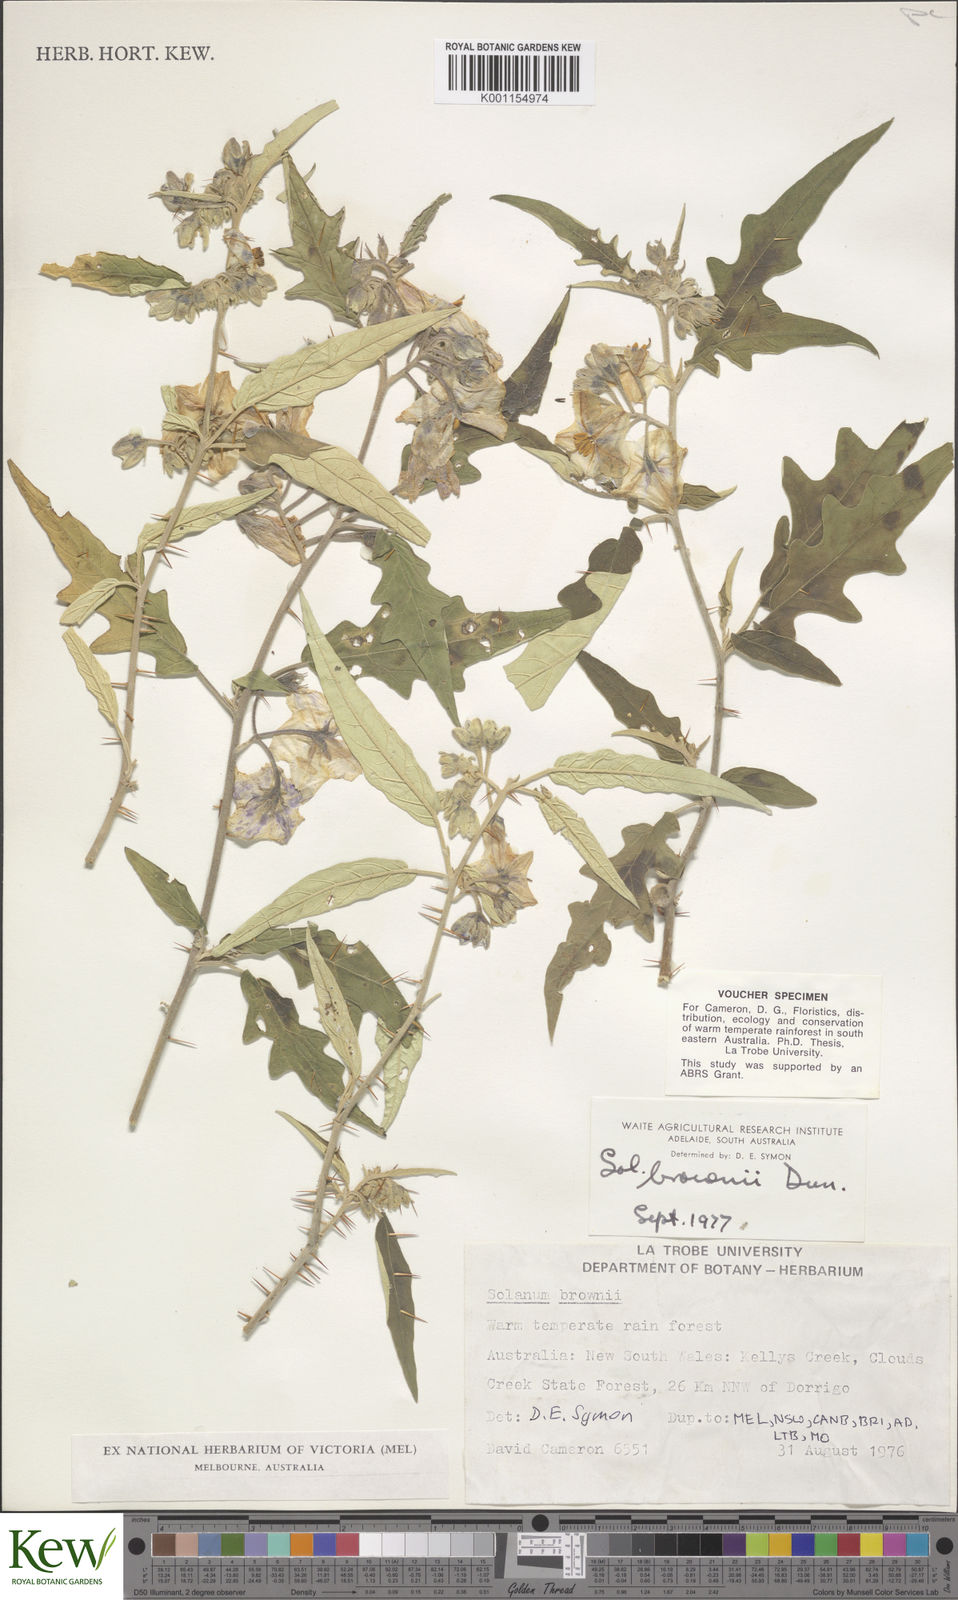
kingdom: Plantae
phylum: Tracheophyta
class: Magnoliopsida
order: Solanales
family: Solanaceae
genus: Solanum
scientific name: Solanum brownii
